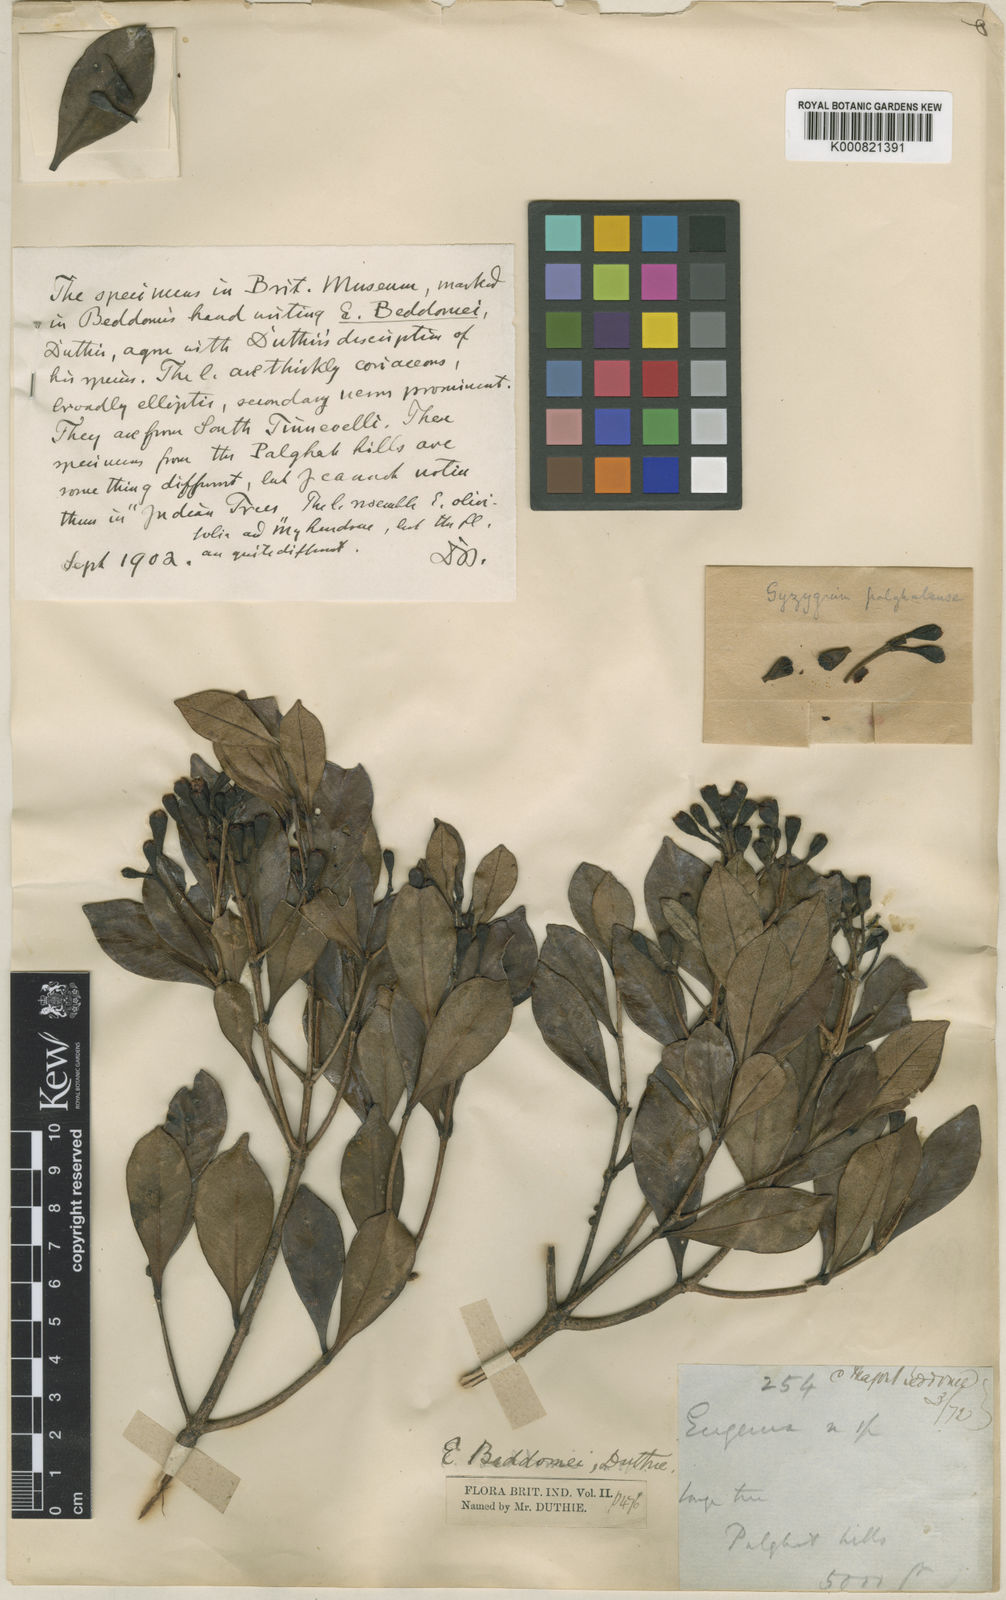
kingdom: Plantae
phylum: Tracheophyta
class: Magnoliopsida
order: Myrtales
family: Myrtaceae
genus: Syzygium
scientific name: Syzygium palghatense
